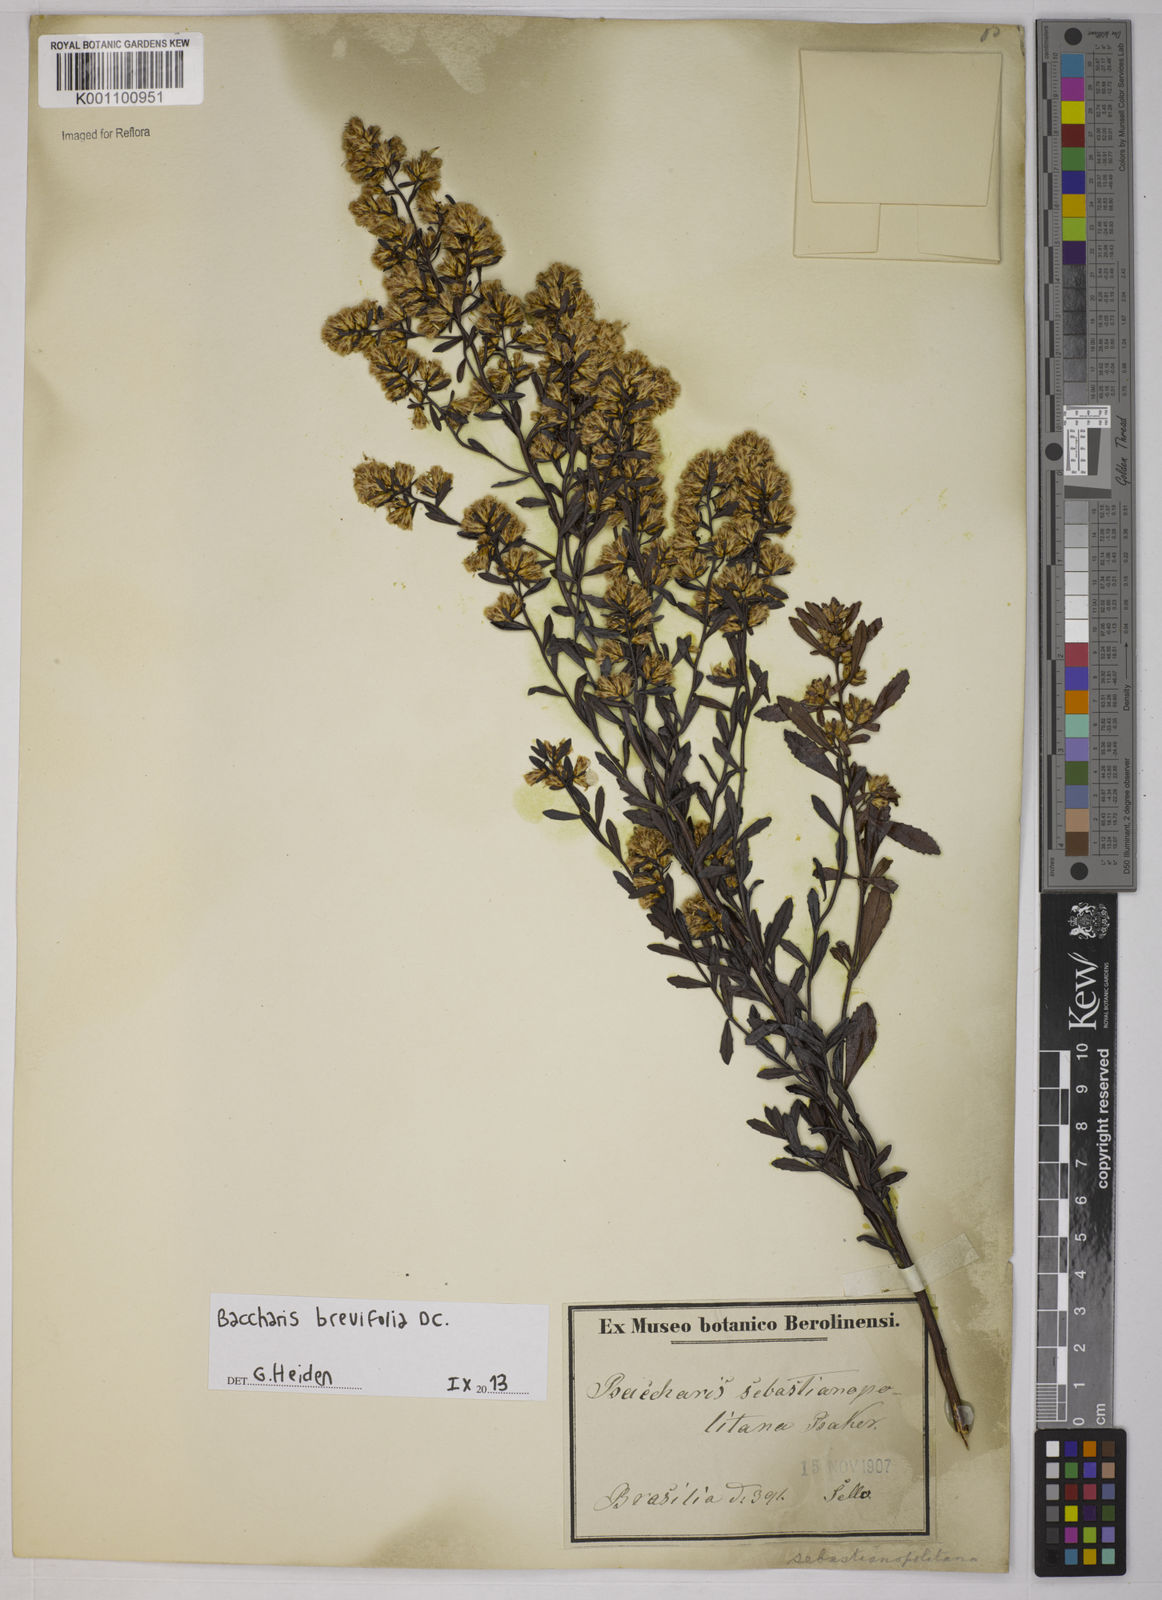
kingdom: Plantae
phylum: Tracheophyta
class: Magnoliopsida
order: Asterales
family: Asteraceae
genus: Baccharis
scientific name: Baccharis brevifolia
